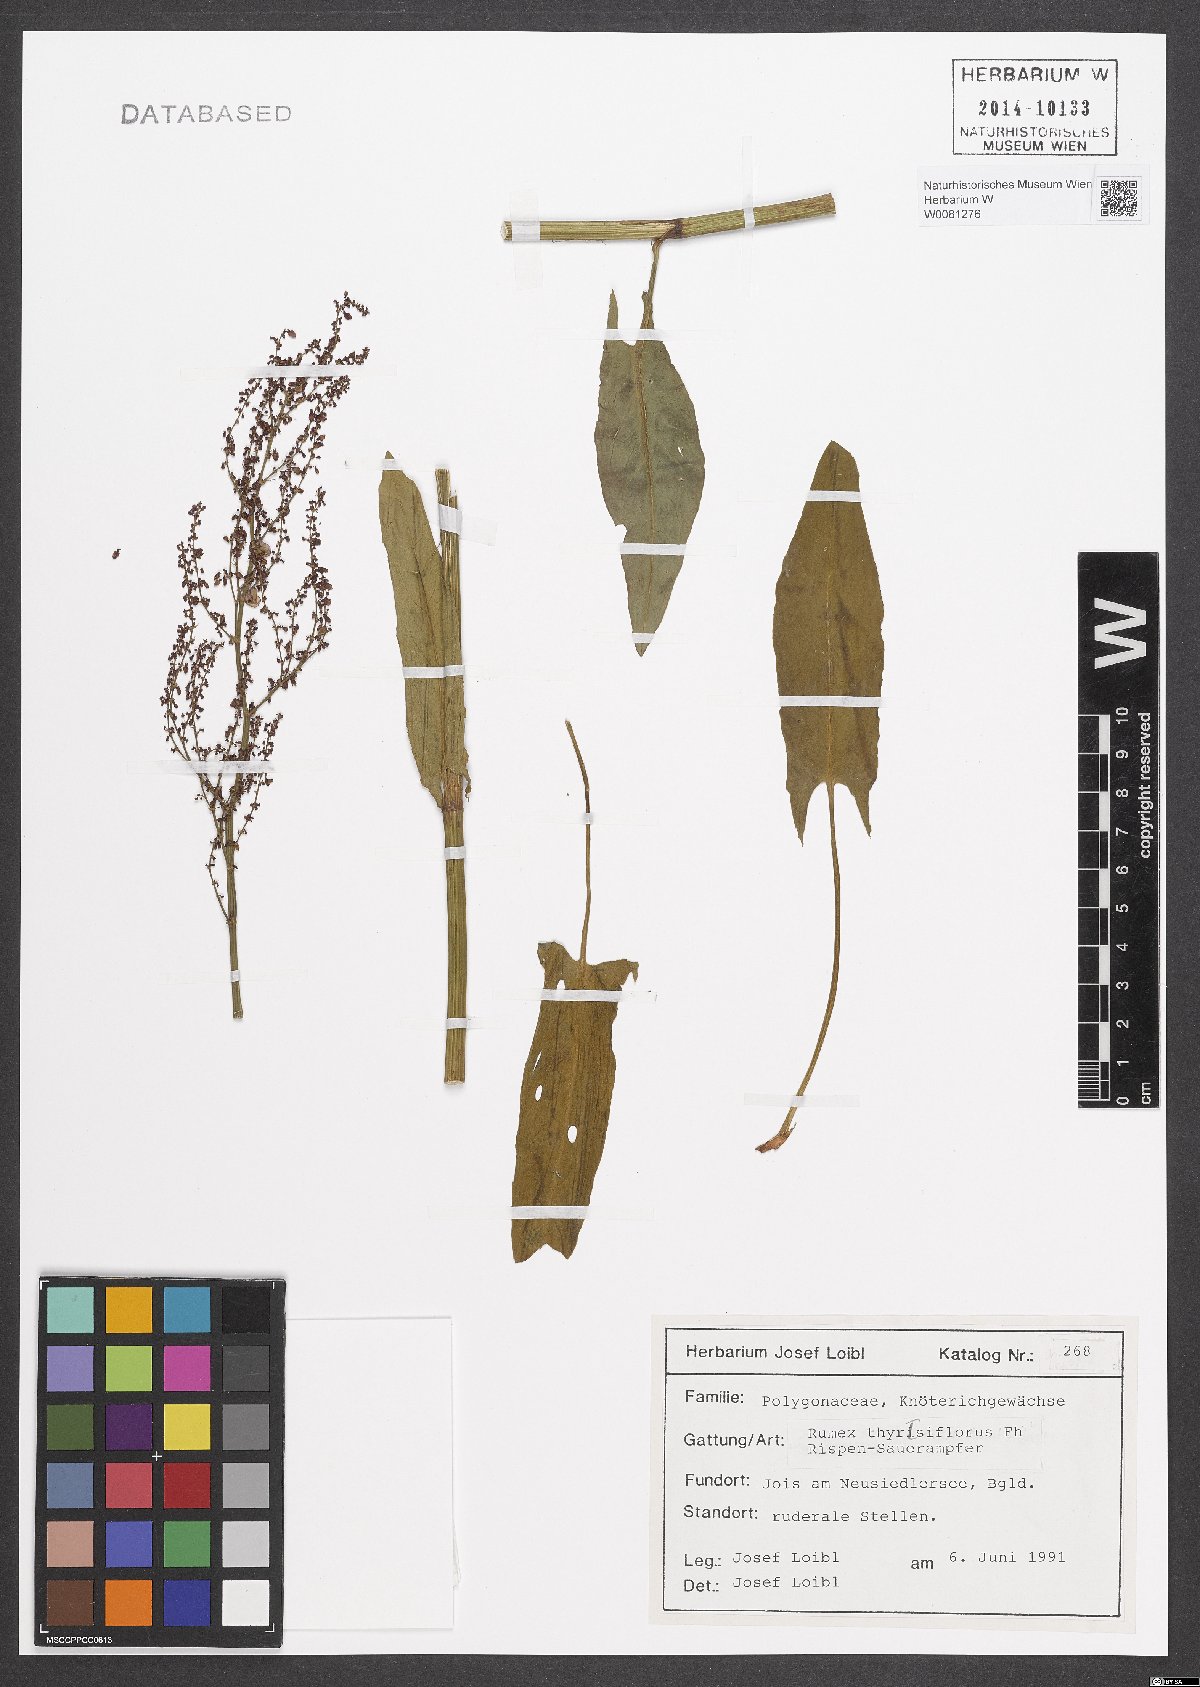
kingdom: Plantae
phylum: Tracheophyta
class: Magnoliopsida
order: Caryophyllales
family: Polygonaceae
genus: Rumex
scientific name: Rumex thyrsiflorus
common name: Garden sorrel
